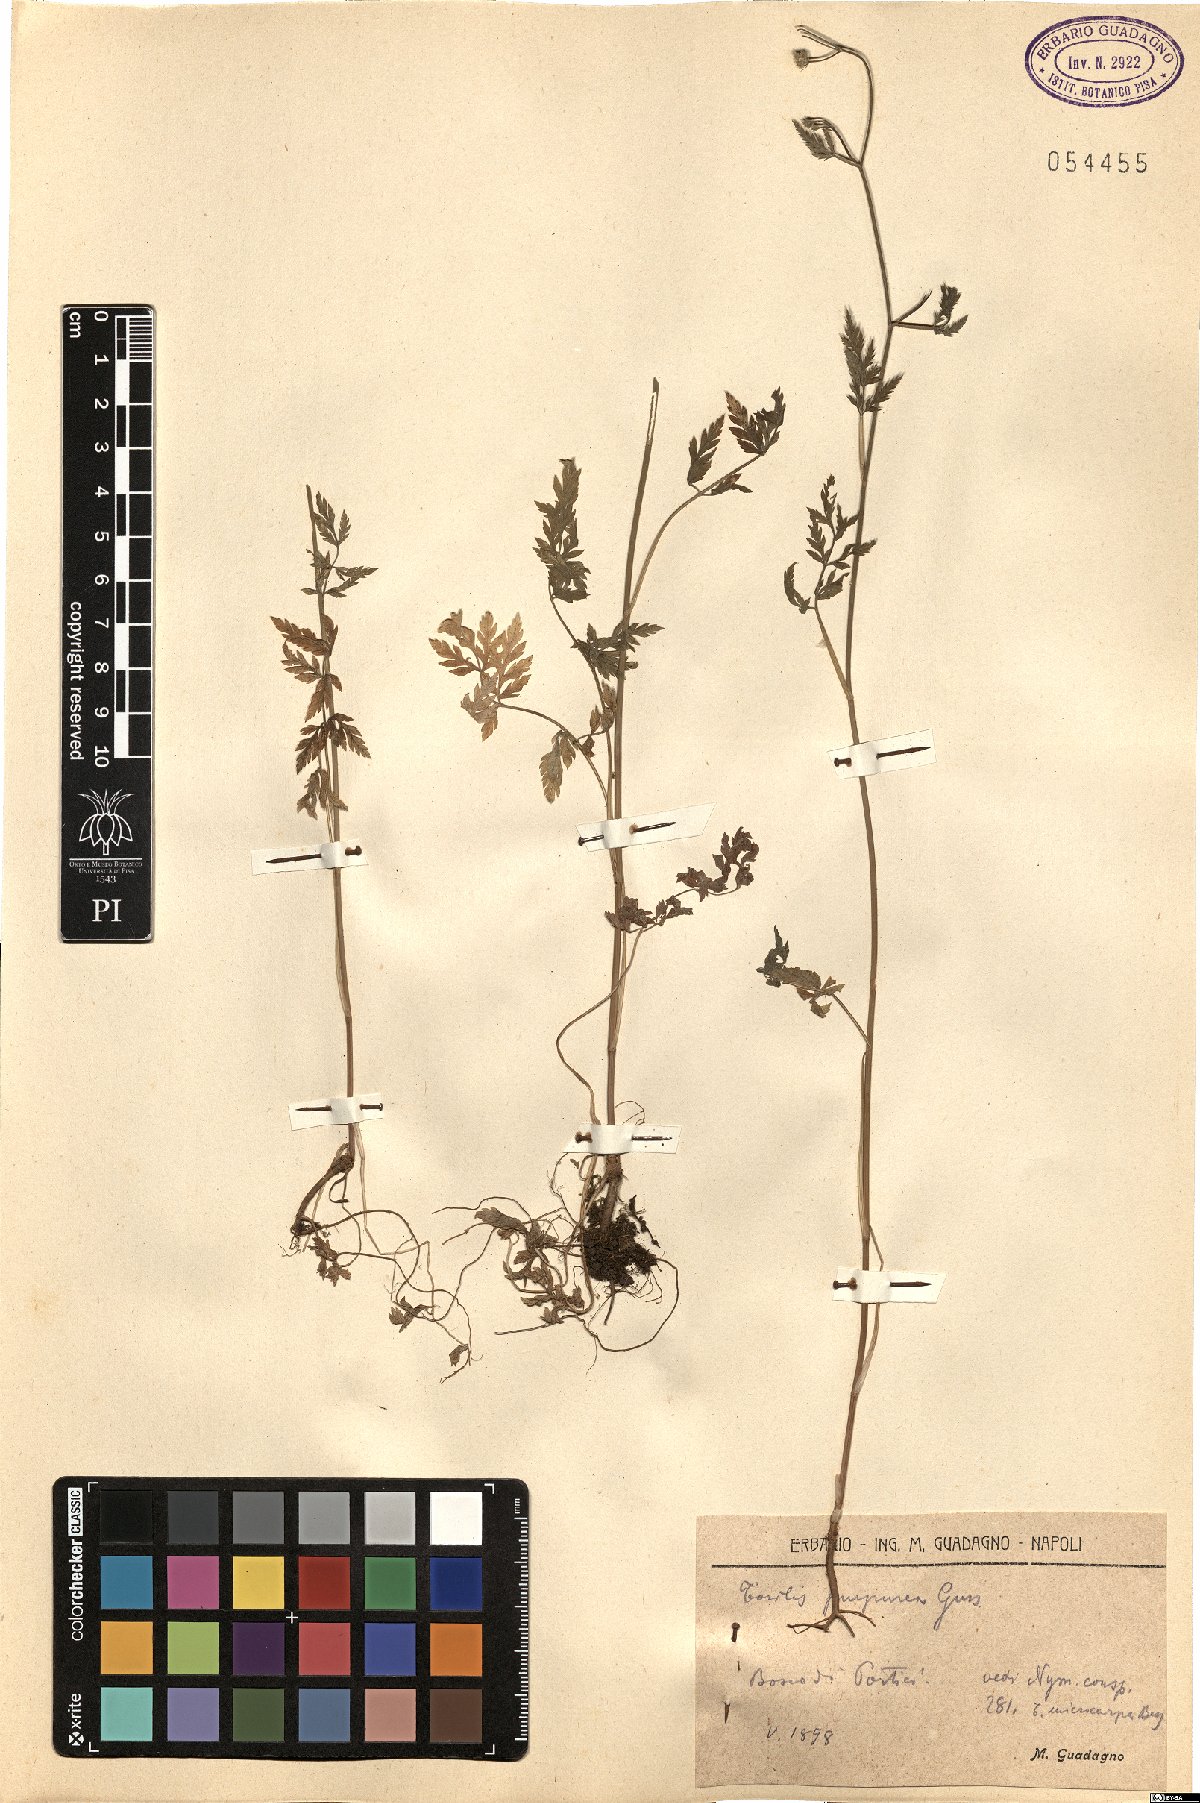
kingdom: Plantae
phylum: Tracheophyta
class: Magnoliopsida
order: Apiales
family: Apiaceae
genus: Torilis
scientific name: Torilis africana
